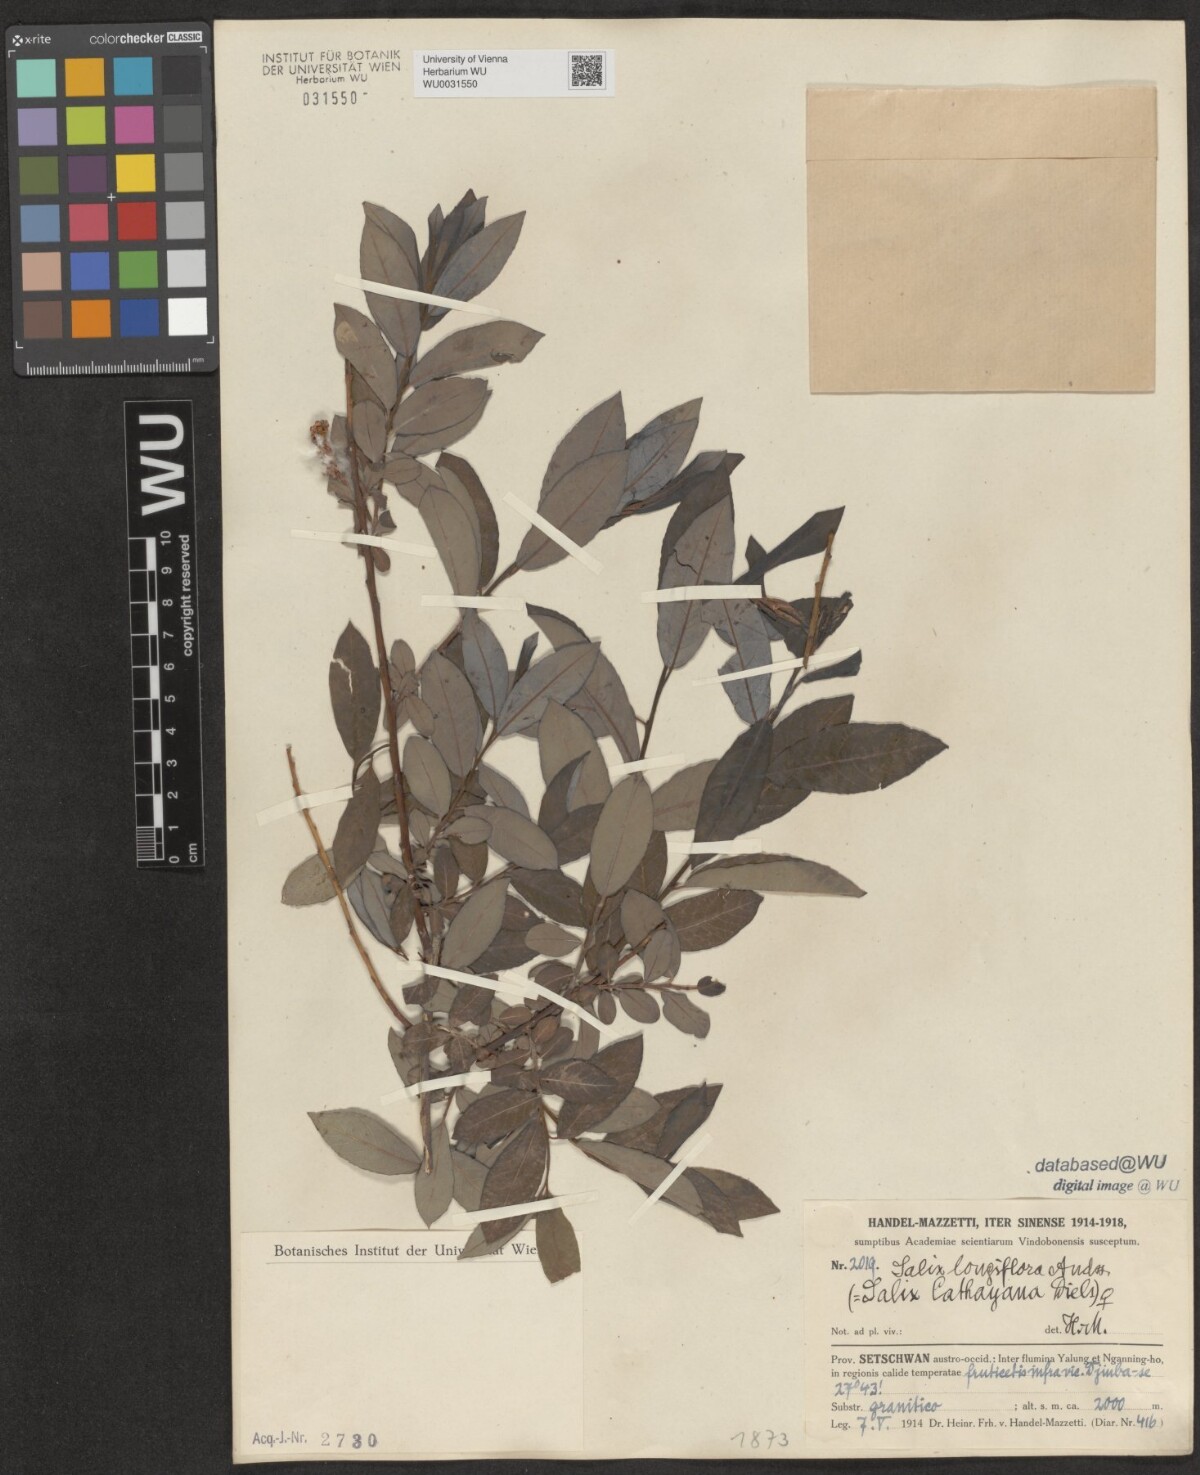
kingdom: Plantae
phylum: Tracheophyta
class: Magnoliopsida
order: Malpighiales
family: Salicaceae
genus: Salix
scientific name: Salix longiflora
